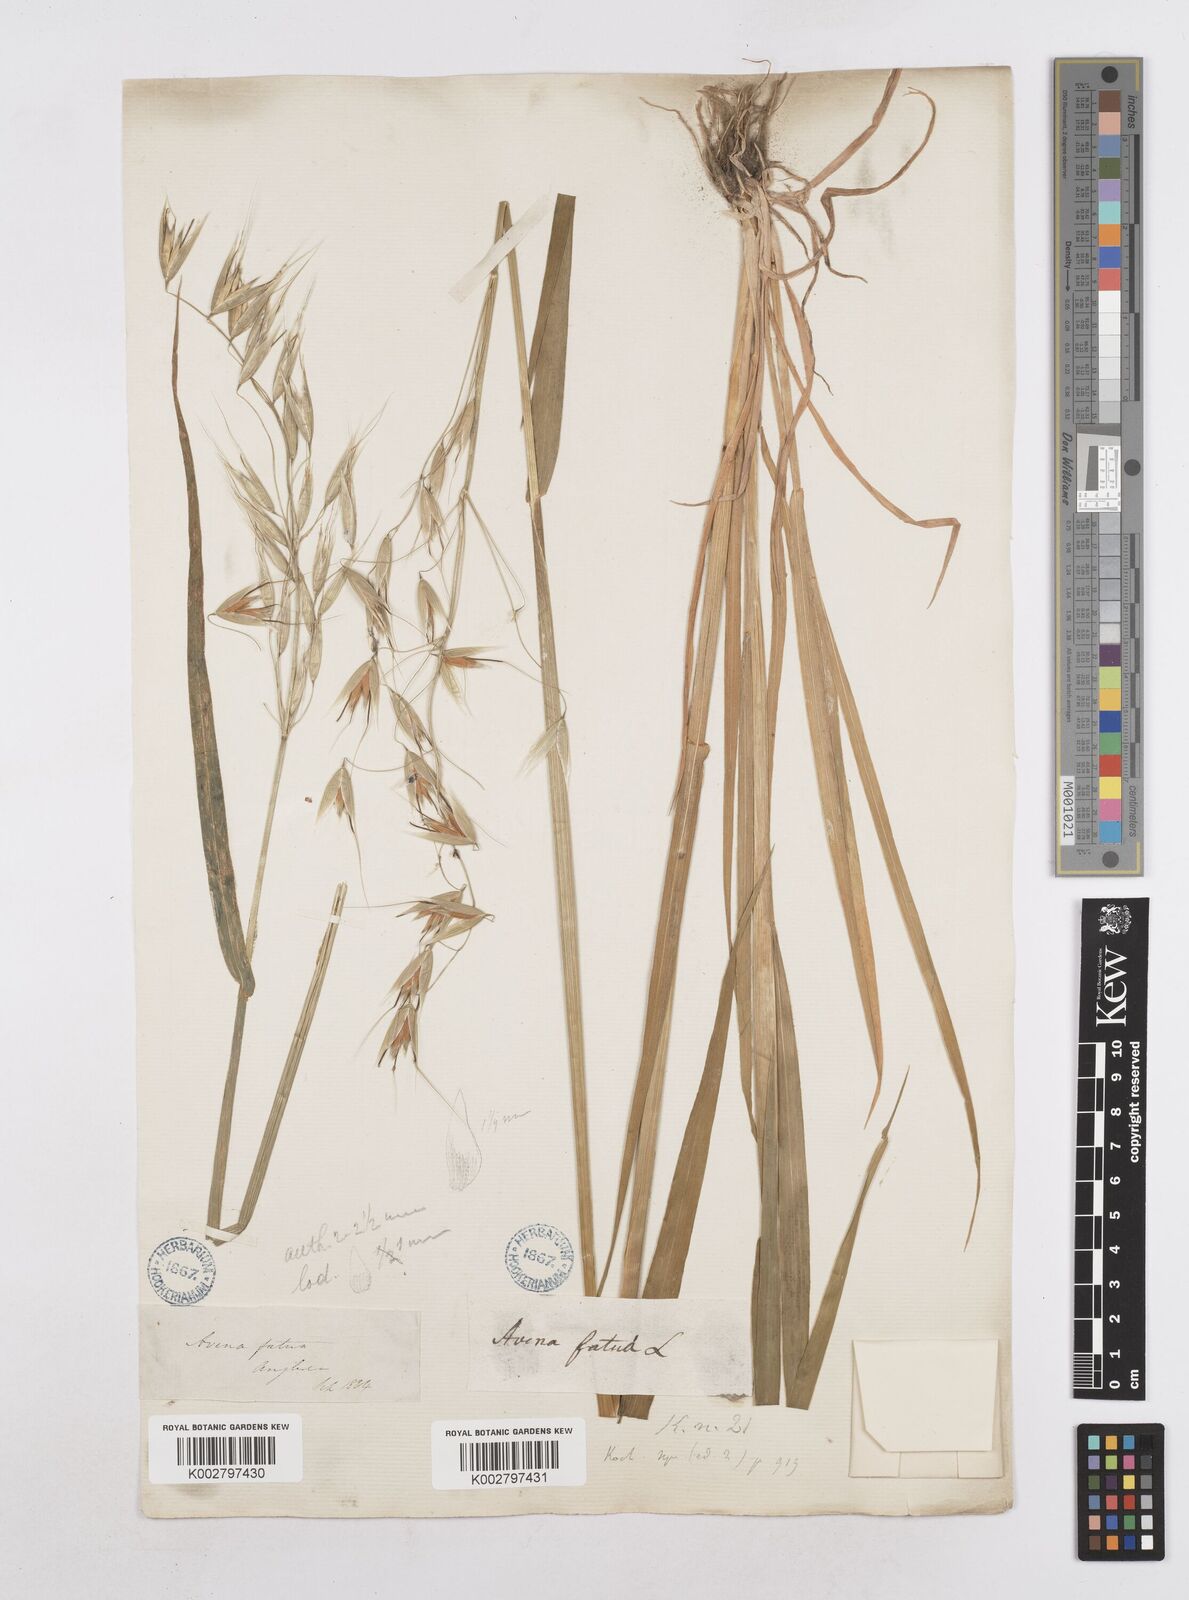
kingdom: Plantae
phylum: Tracheophyta
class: Liliopsida
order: Poales
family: Poaceae
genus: Avena
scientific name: Avena fatua
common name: Wild oat
